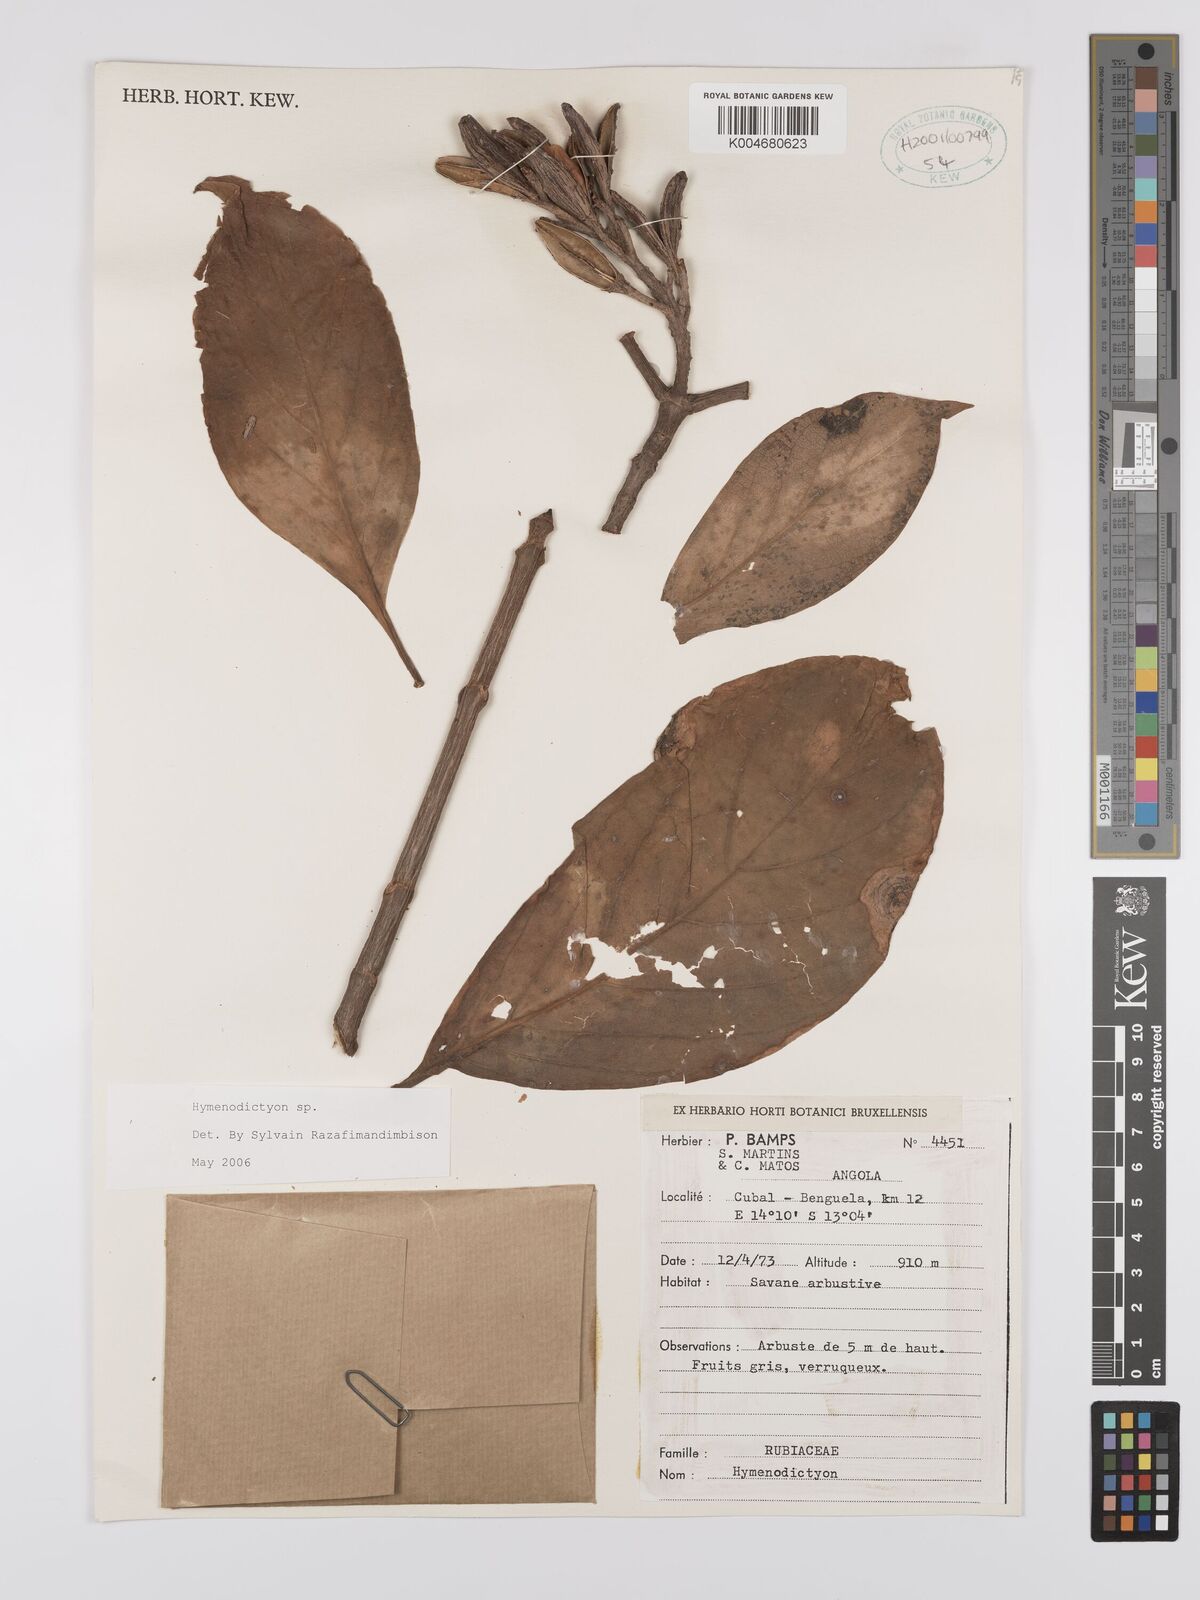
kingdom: Plantae
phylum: Tracheophyta
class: Magnoliopsida
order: Gentianales
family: Rubiaceae
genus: Hymenodictyon
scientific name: Hymenodictyon
